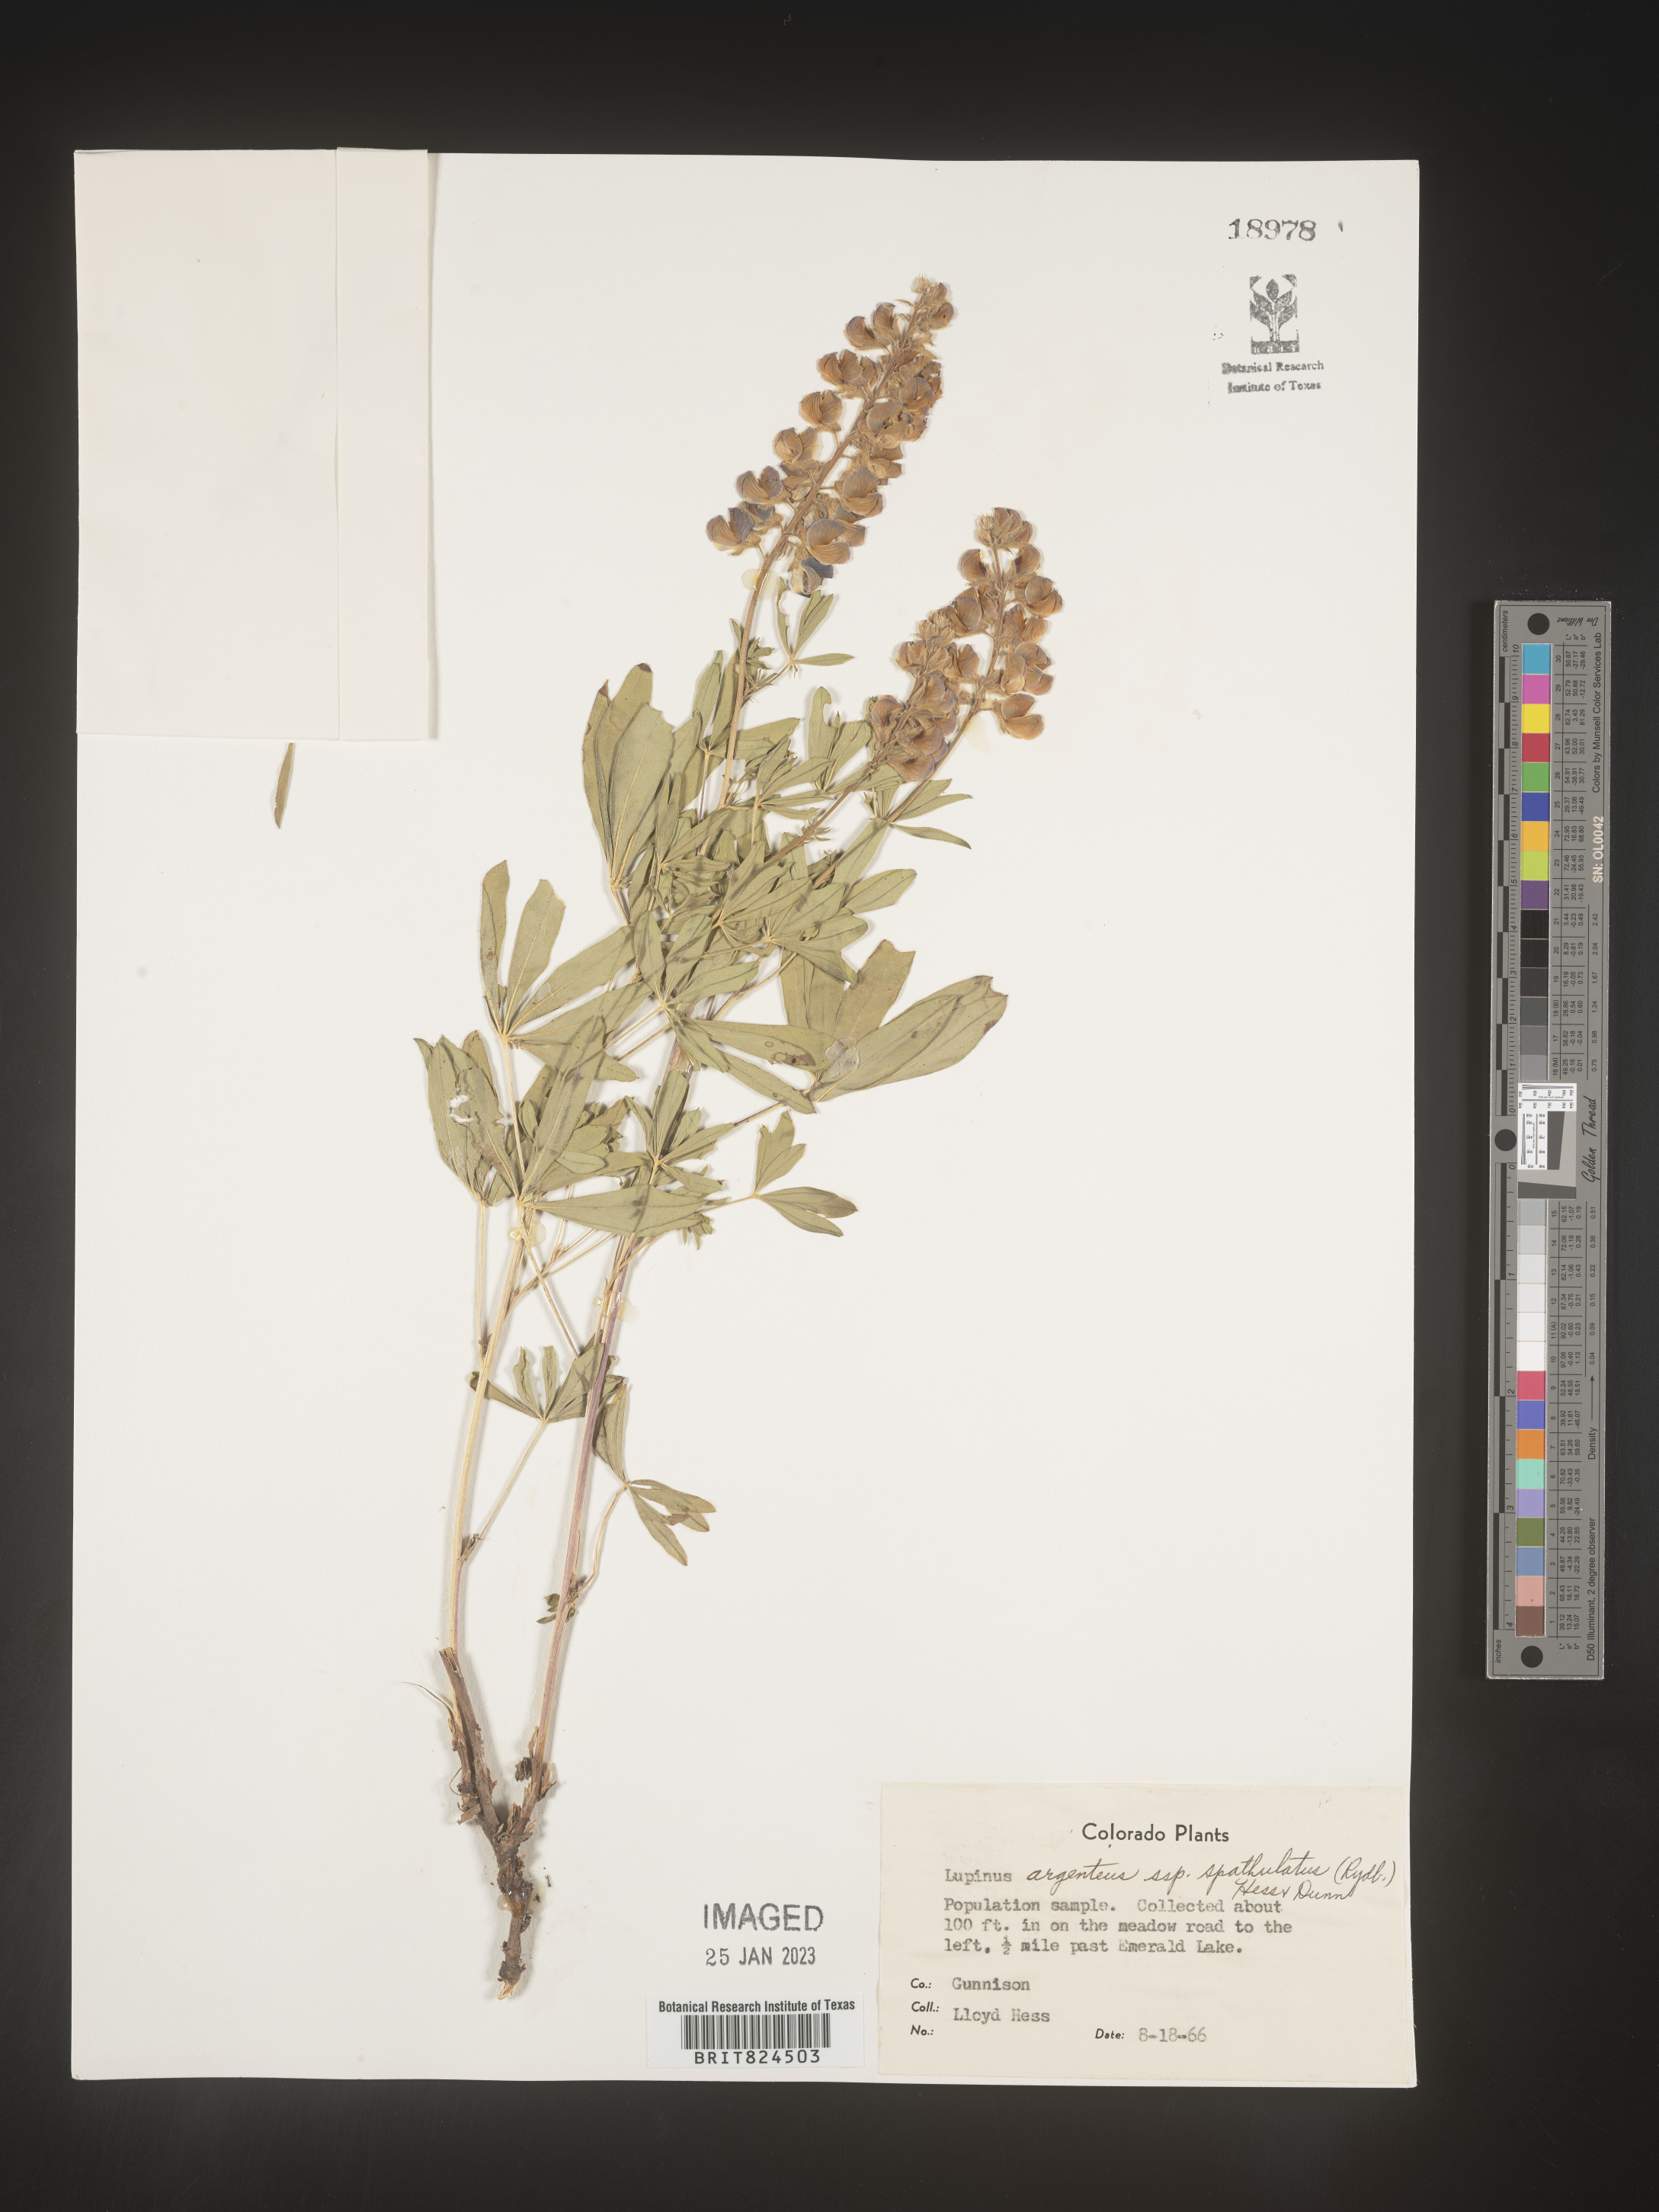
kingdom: Plantae
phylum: Tracheophyta
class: Magnoliopsida
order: Fabales
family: Fabaceae
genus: Lupinus
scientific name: Lupinus argenteus
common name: Silvery lupine
